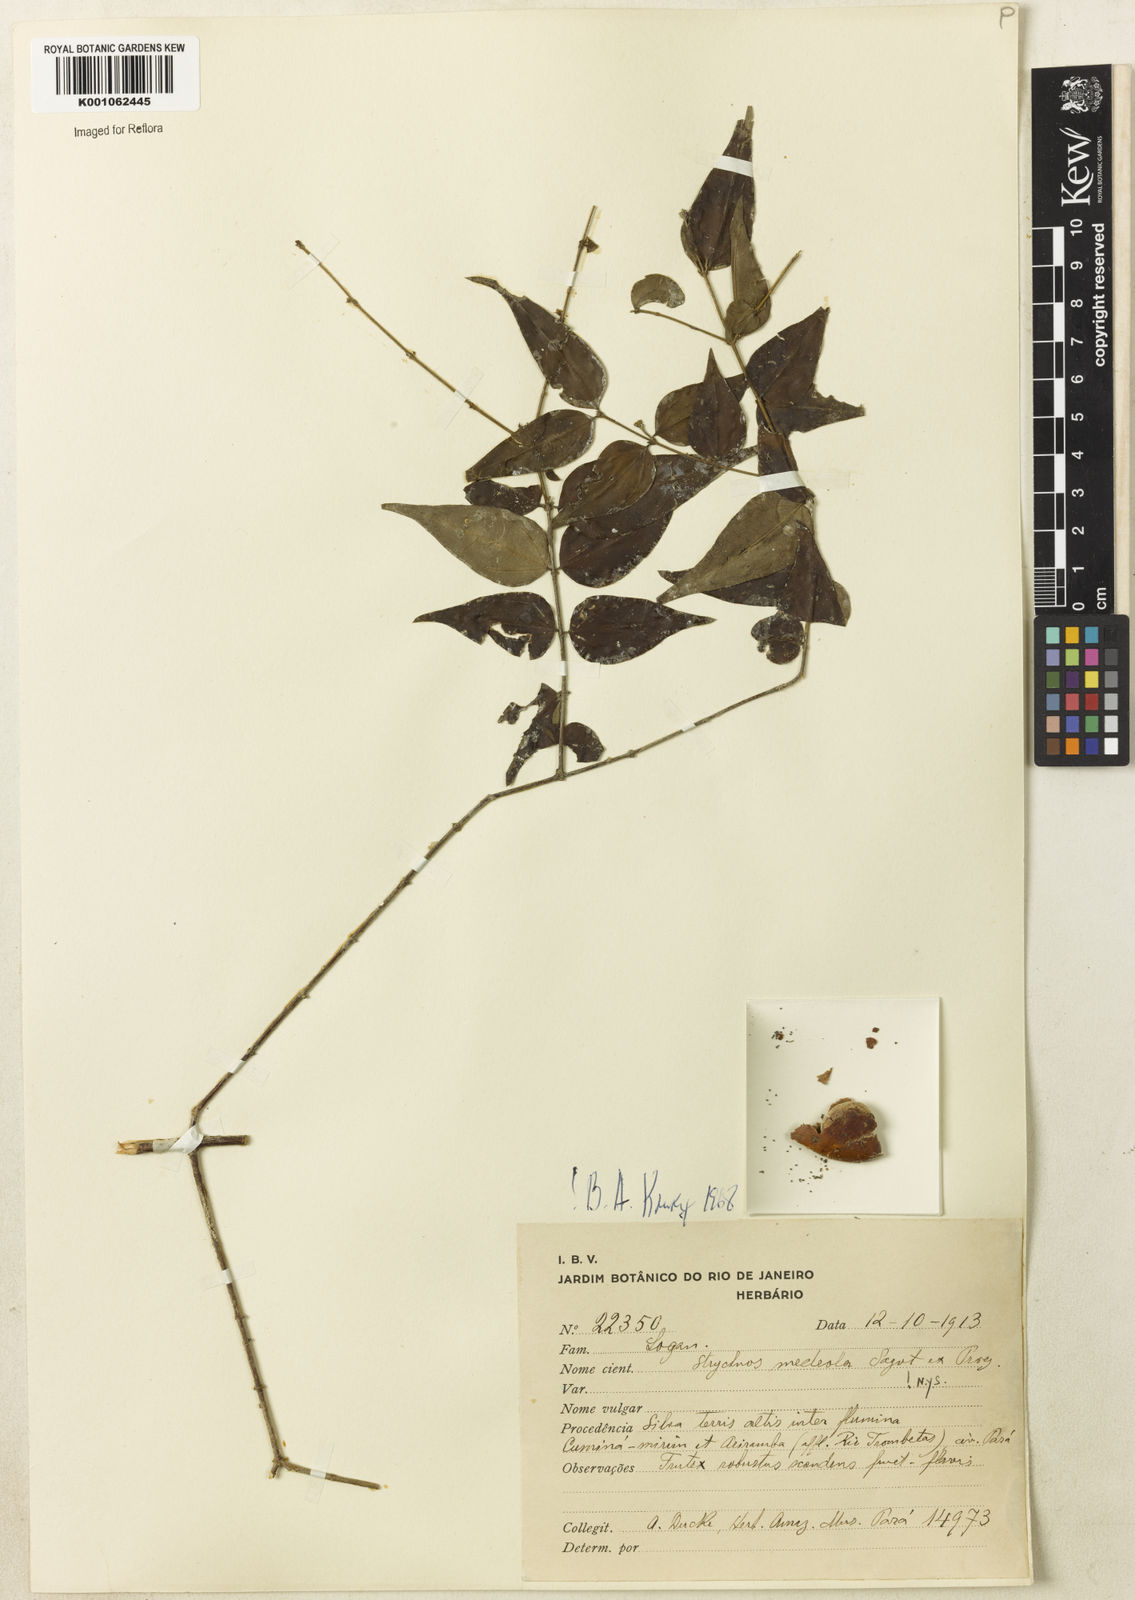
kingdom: Plantae
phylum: Tracheophyta
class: Magnoliopsida
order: Gentianales
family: Loganiaceae
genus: Strychnos
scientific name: Strychnos medeola
